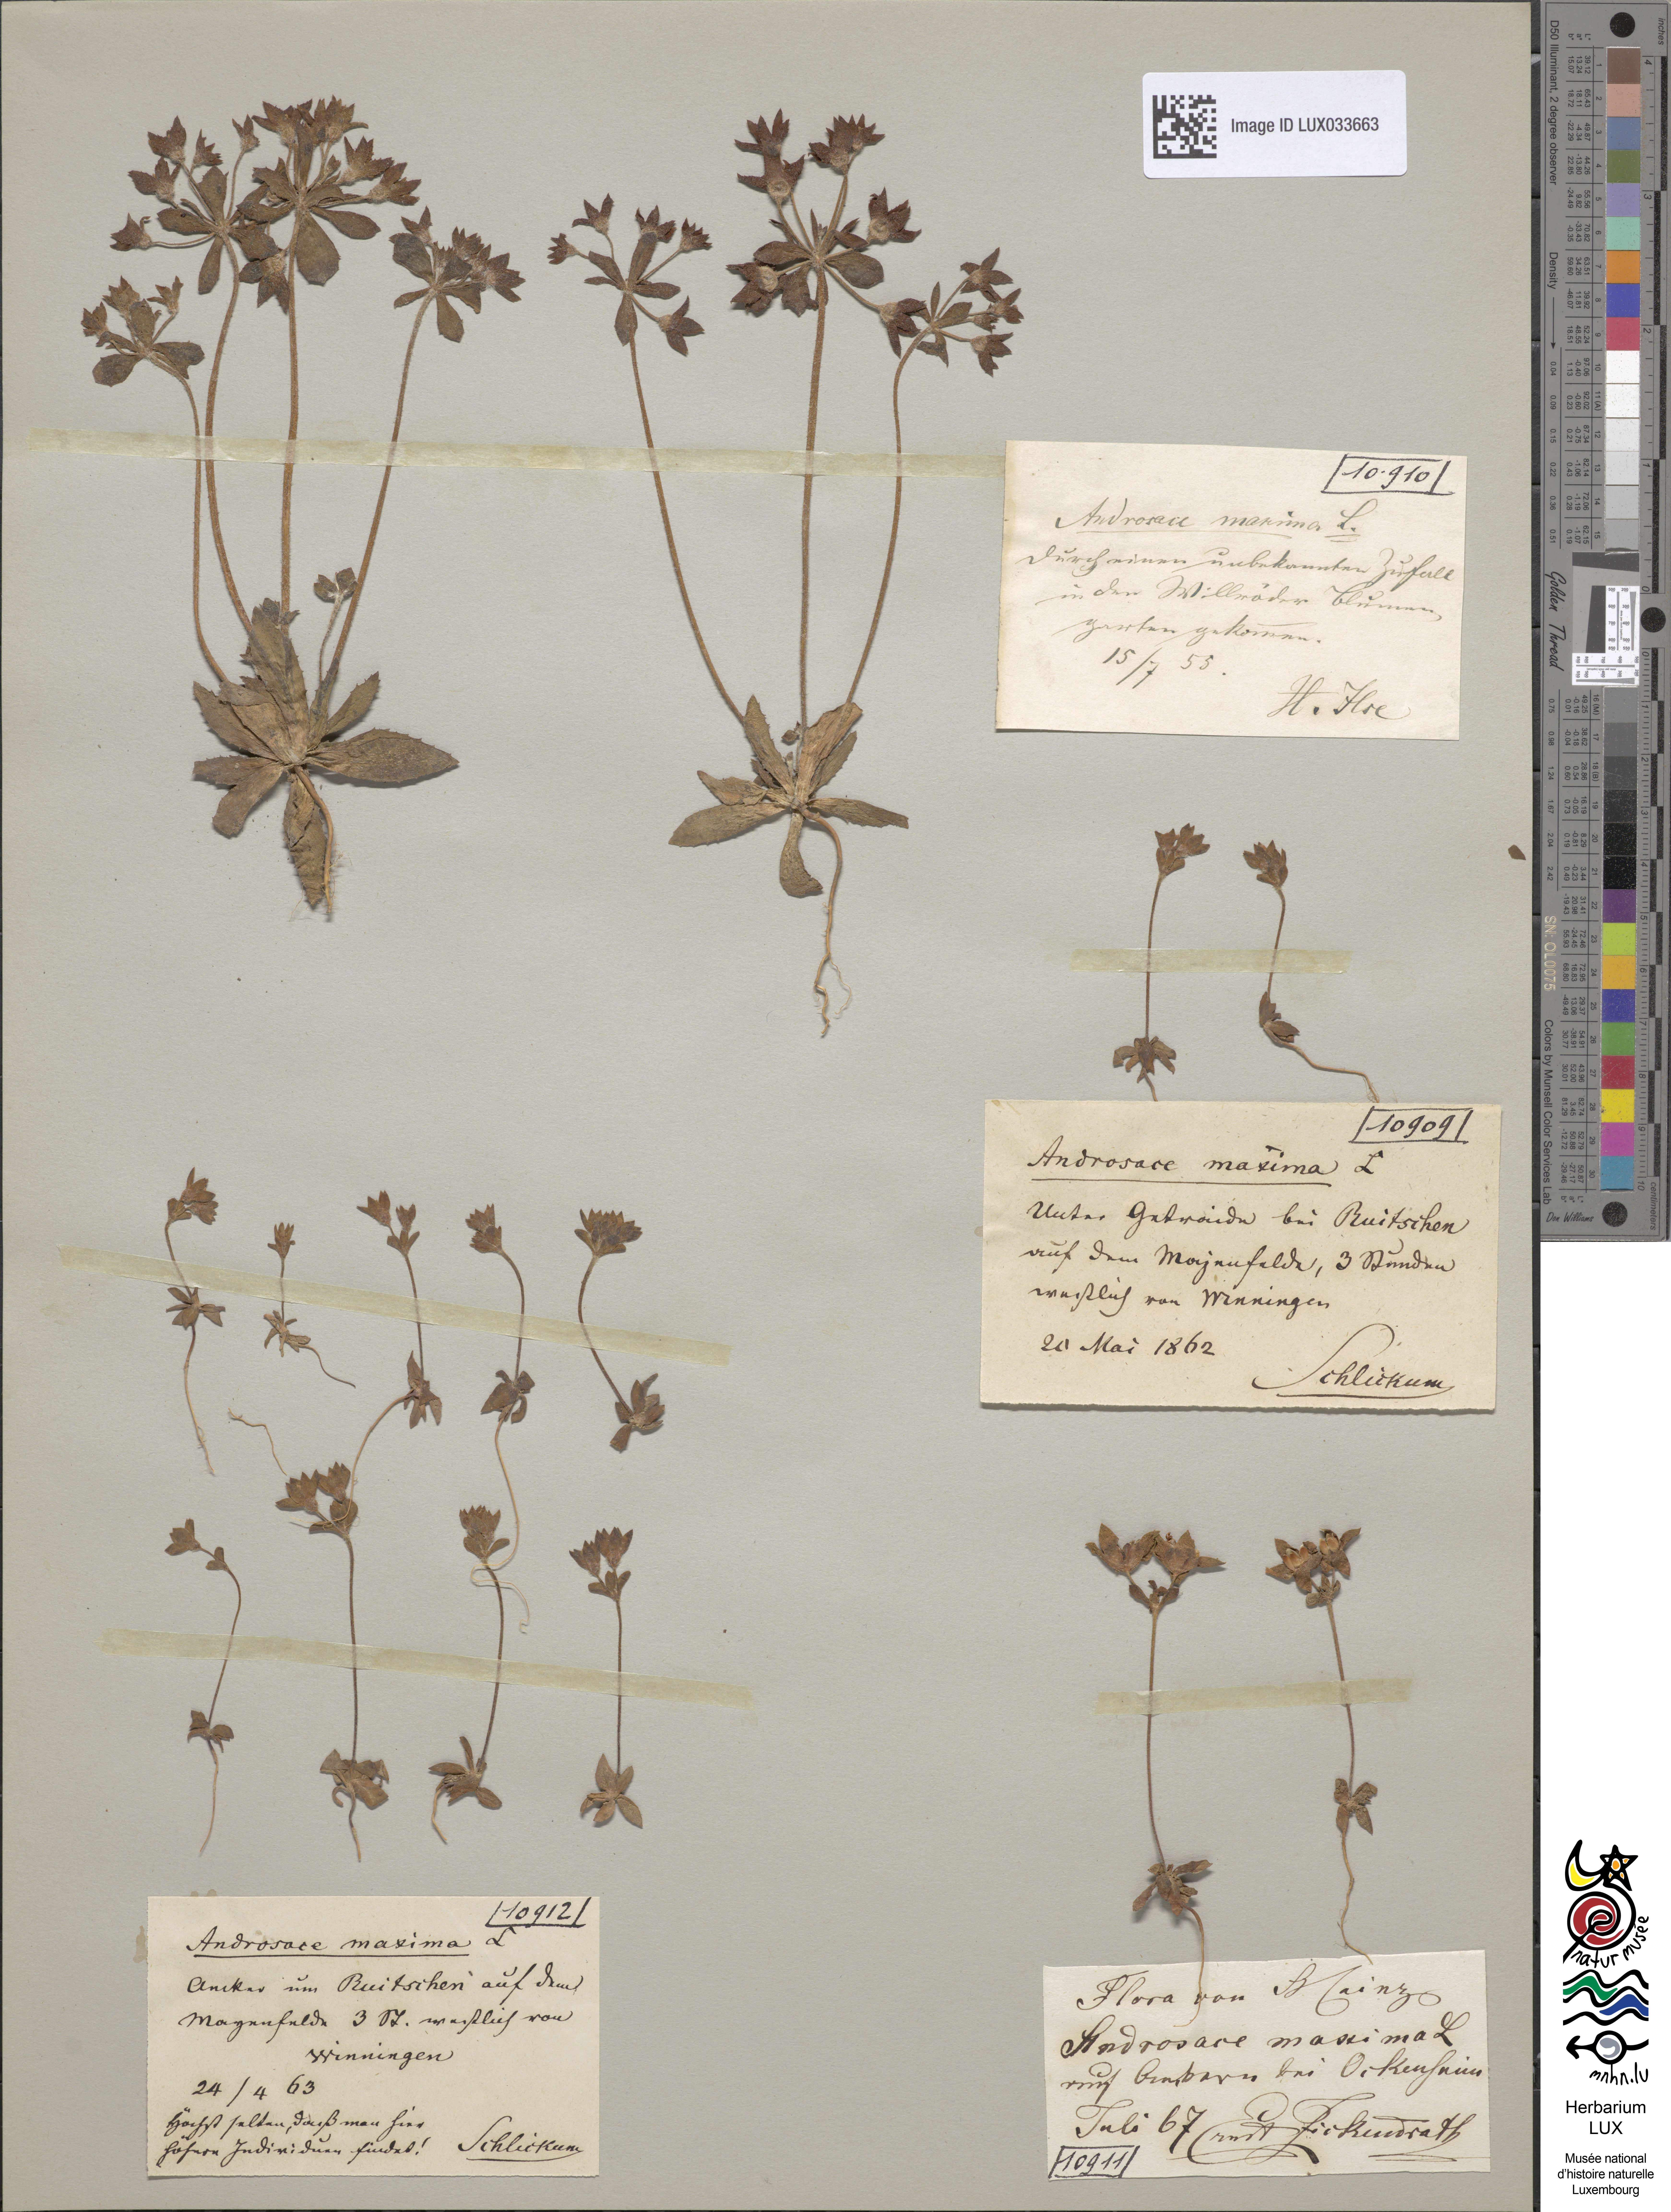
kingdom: Plantae
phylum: Tracheophyta
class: Magnoliopsida
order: Ericales
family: Primulaceae
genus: Androsace
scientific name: Androsace maxima
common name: Annual androsace
